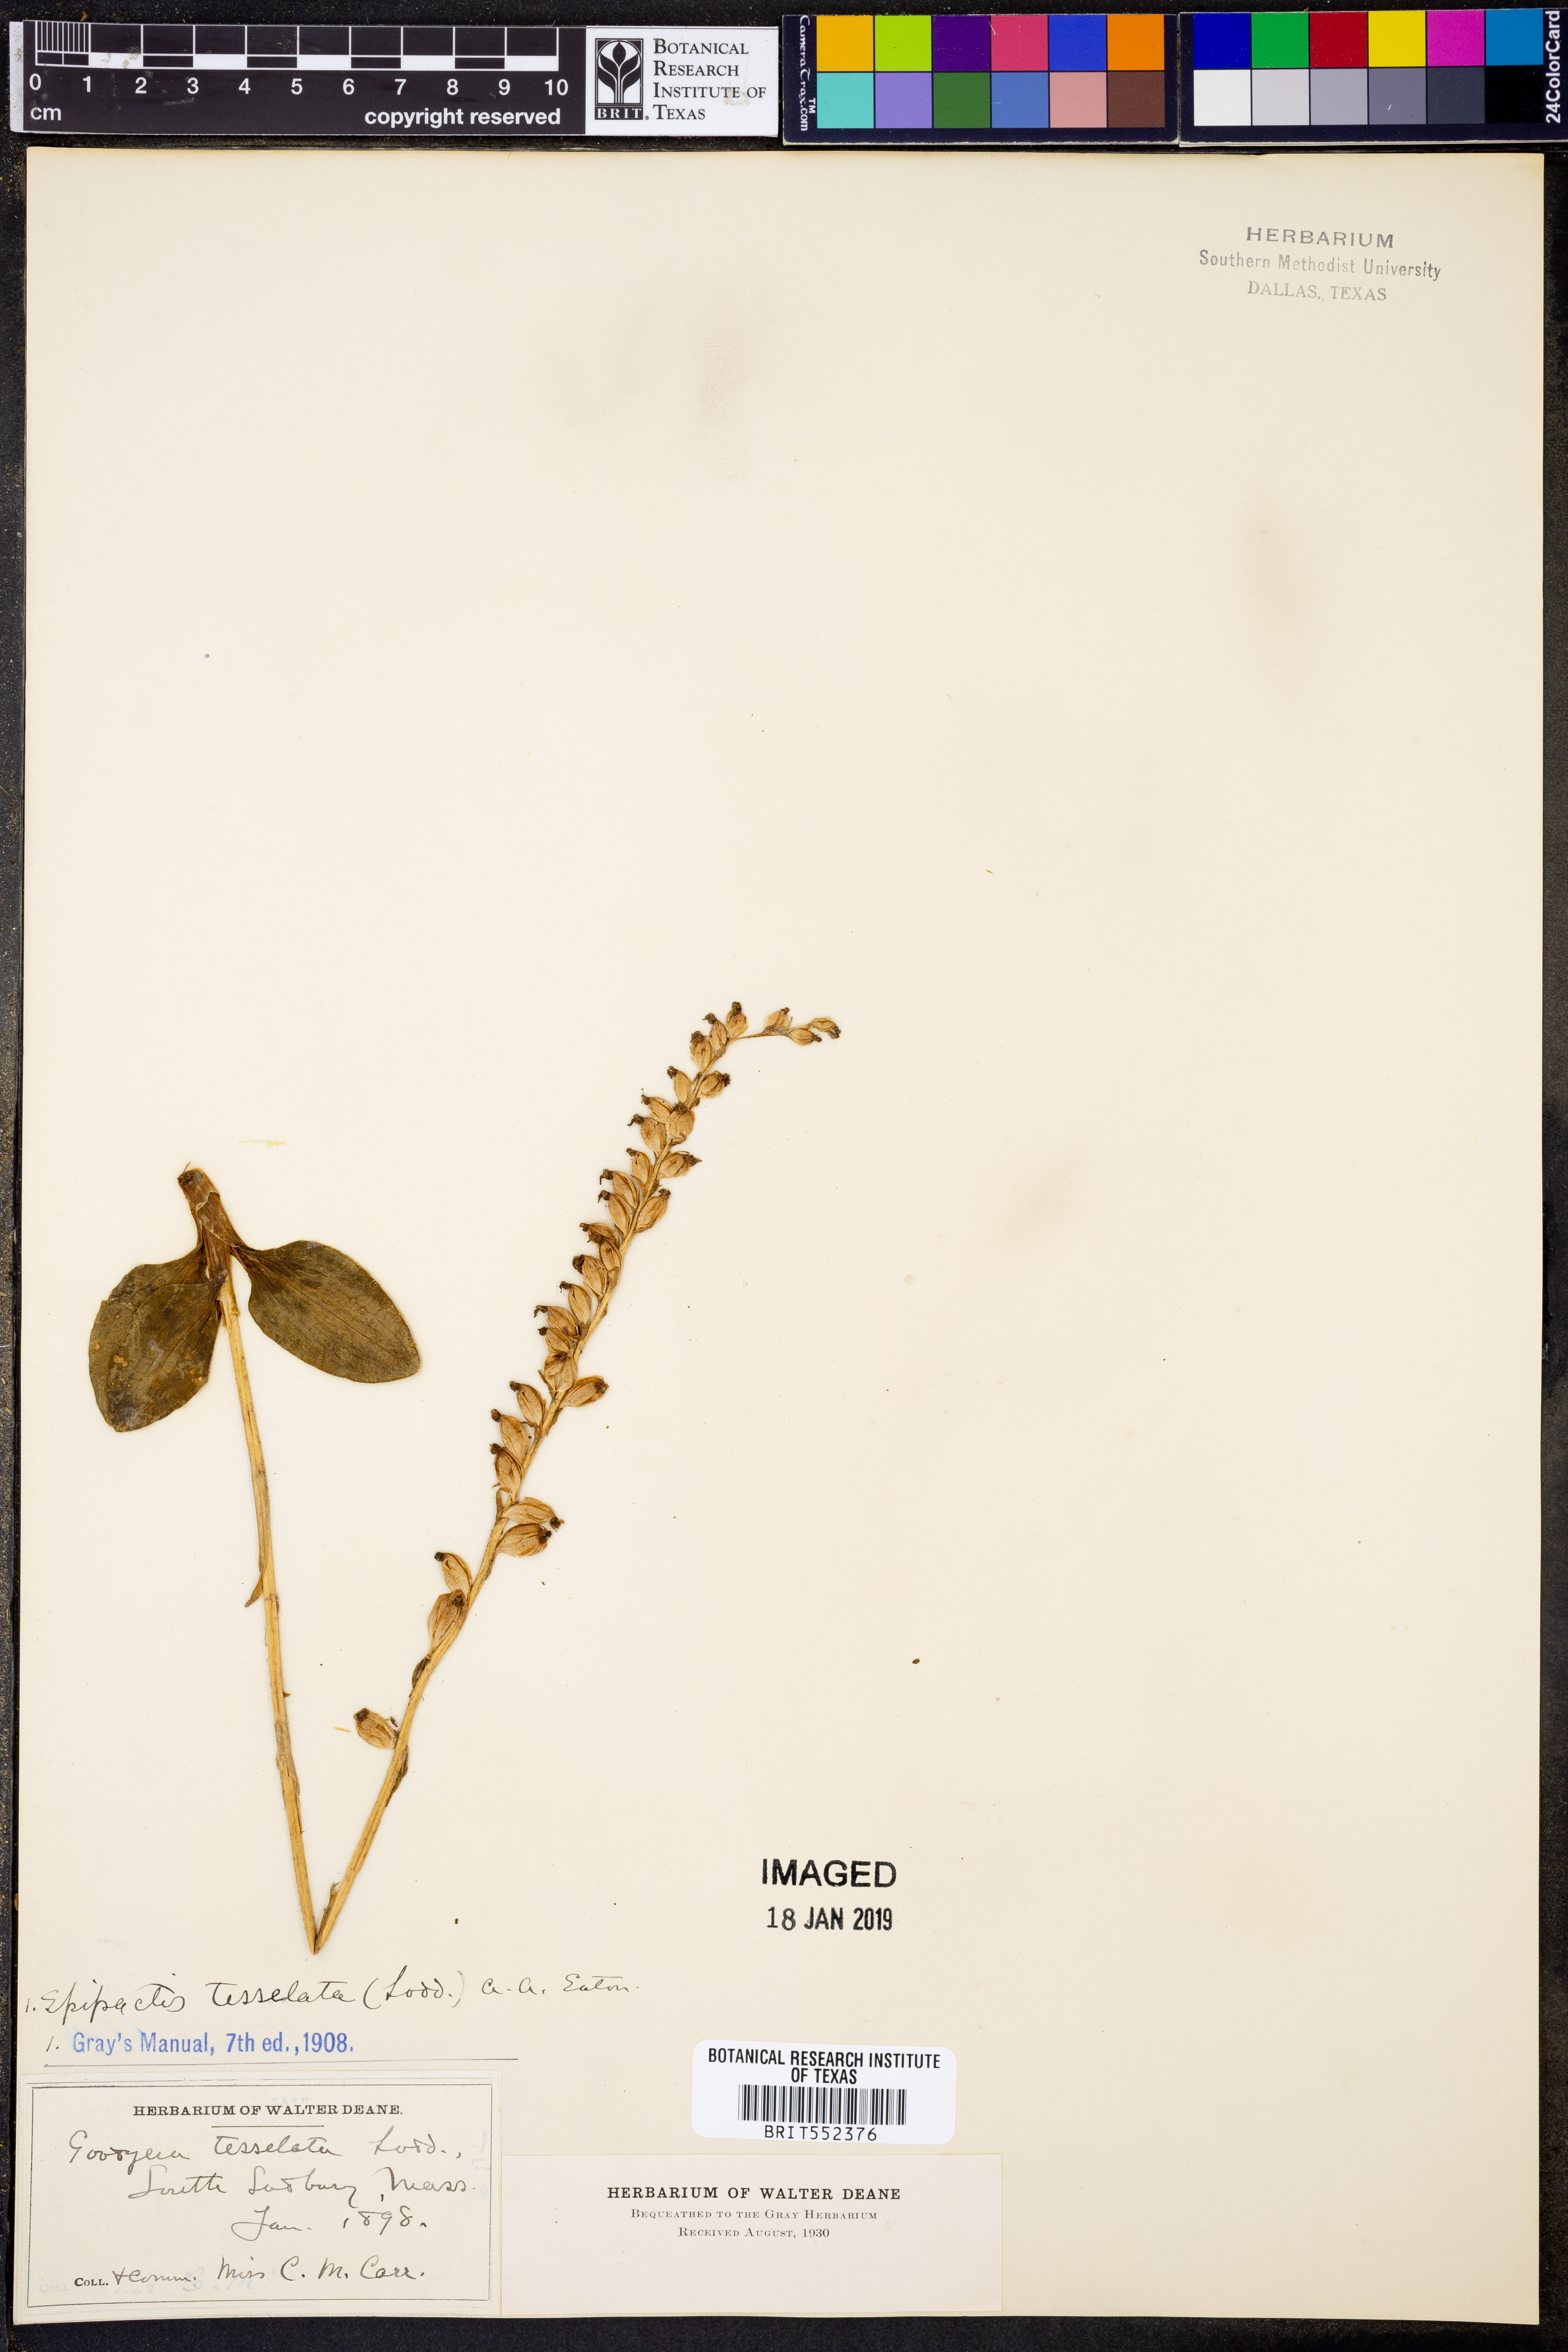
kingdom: Plantae
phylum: Tracheophyta
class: Liliopsida
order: Asparagales
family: Orchidaceae
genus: Goodyera
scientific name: Goodyera tesselata
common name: Checkered rattlesnake-plantain
